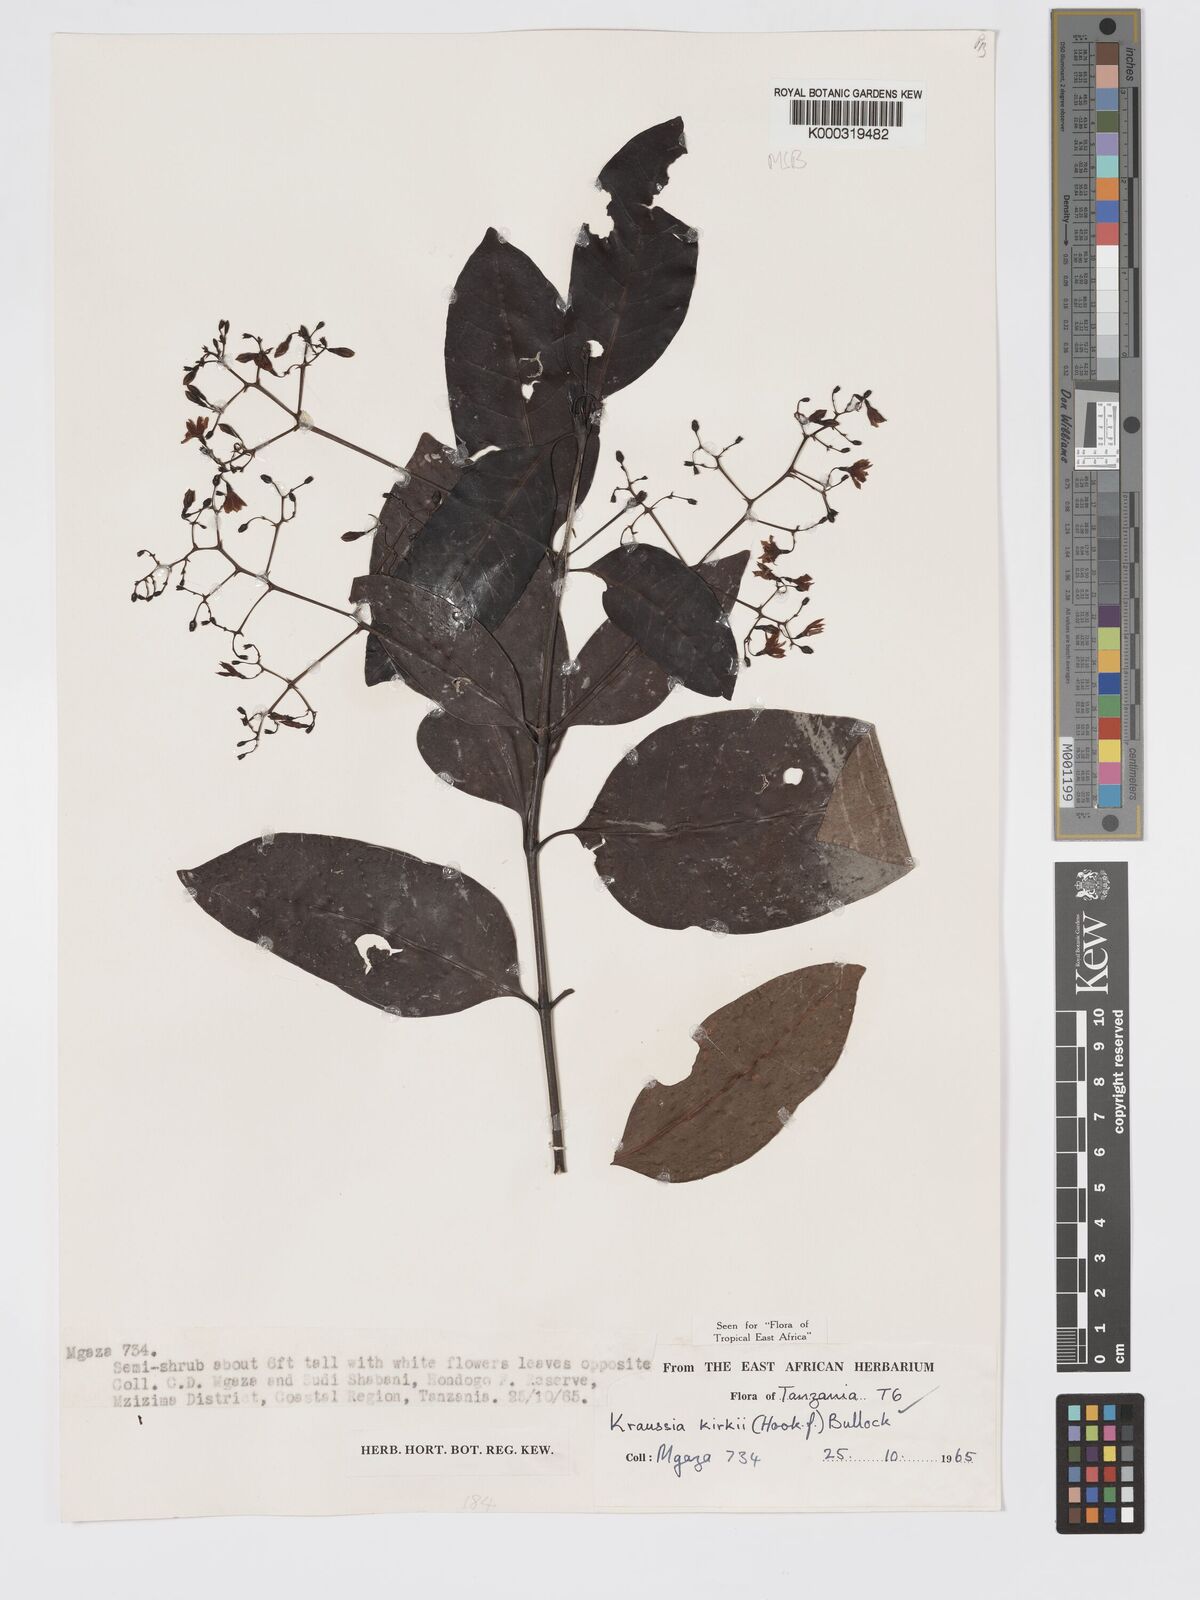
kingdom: Plantae
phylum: Tracheophyta
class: Magnoliopsida
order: Gentianales
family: Rubiaceae
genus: Kraussia
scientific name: Kraussia kirkii
